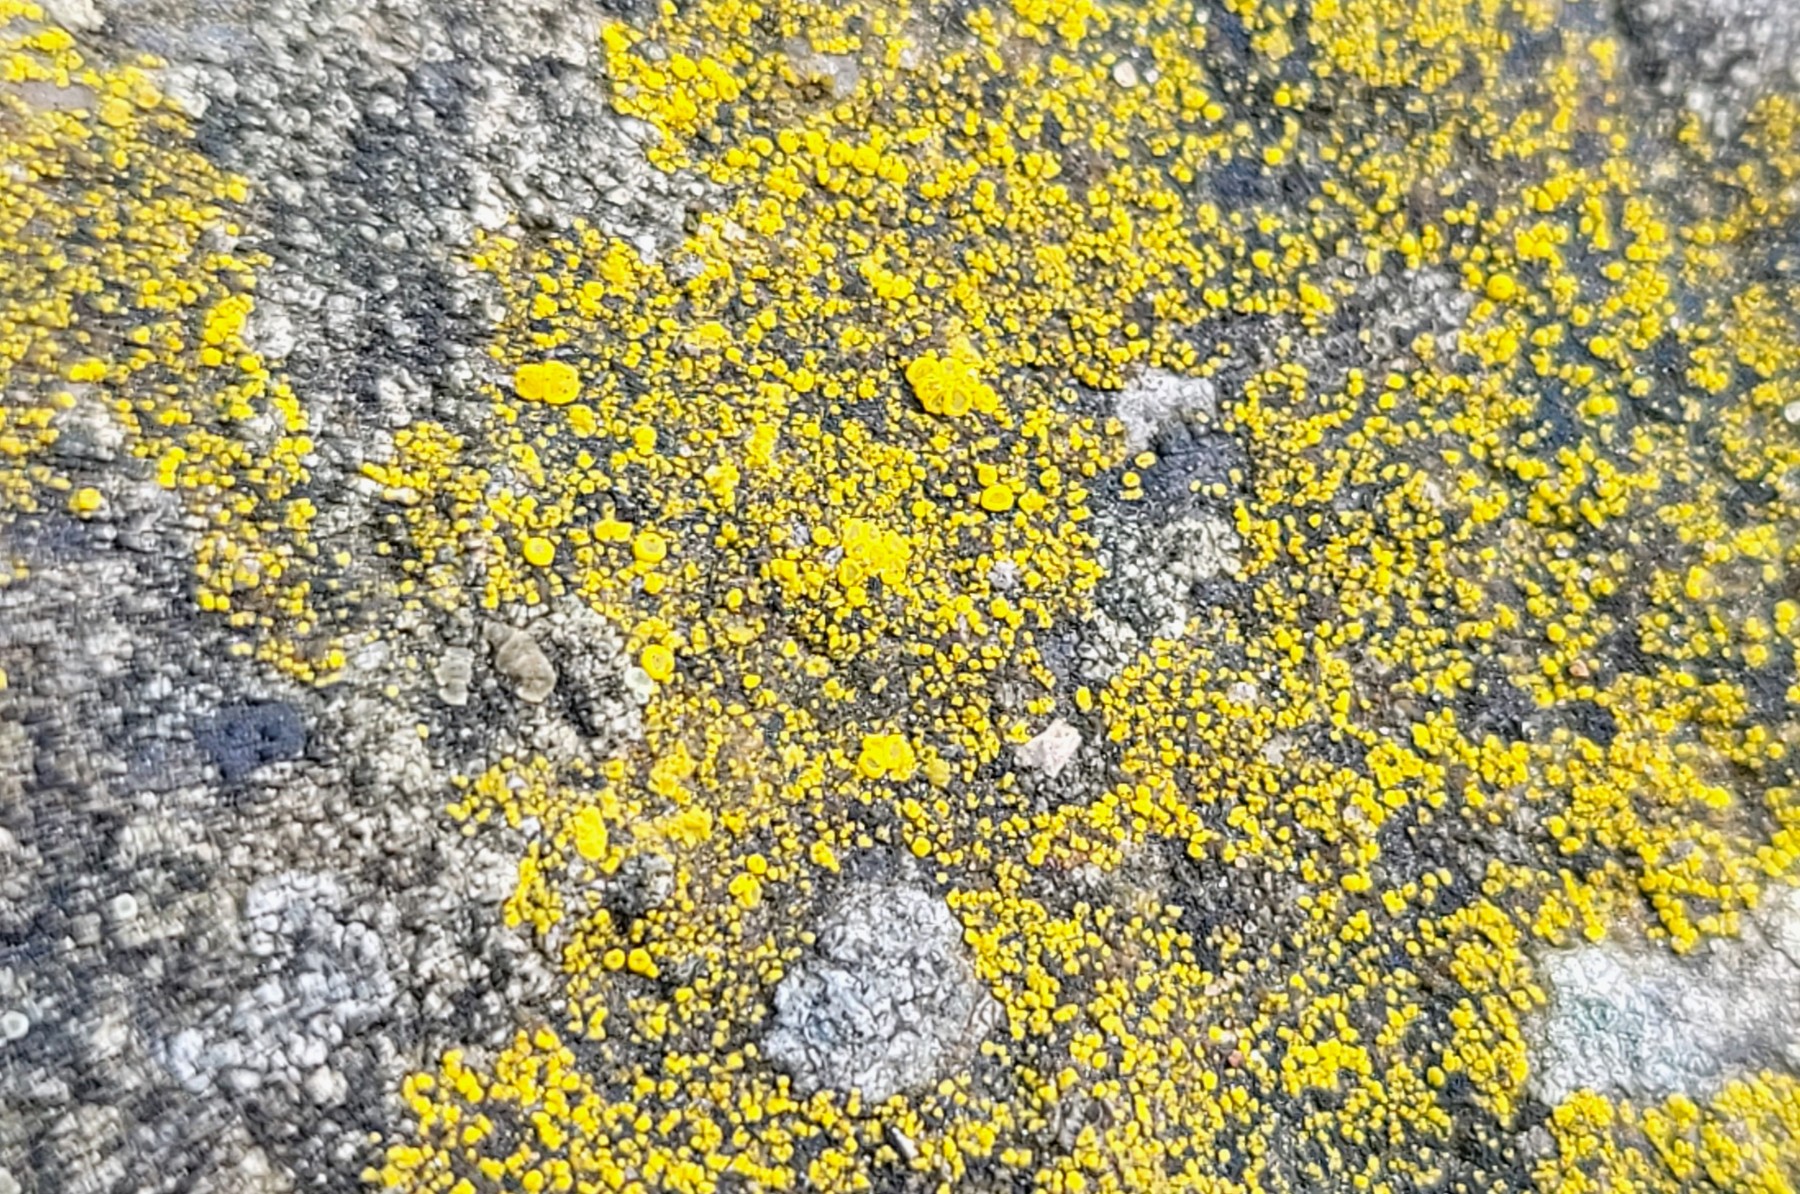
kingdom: Fungi
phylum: Ascomycota
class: Candelariomycetes
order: Candelariales
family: Candelariaceae
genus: Candelariella
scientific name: Candelariella vitellina
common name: almindelig æggeblommelav
